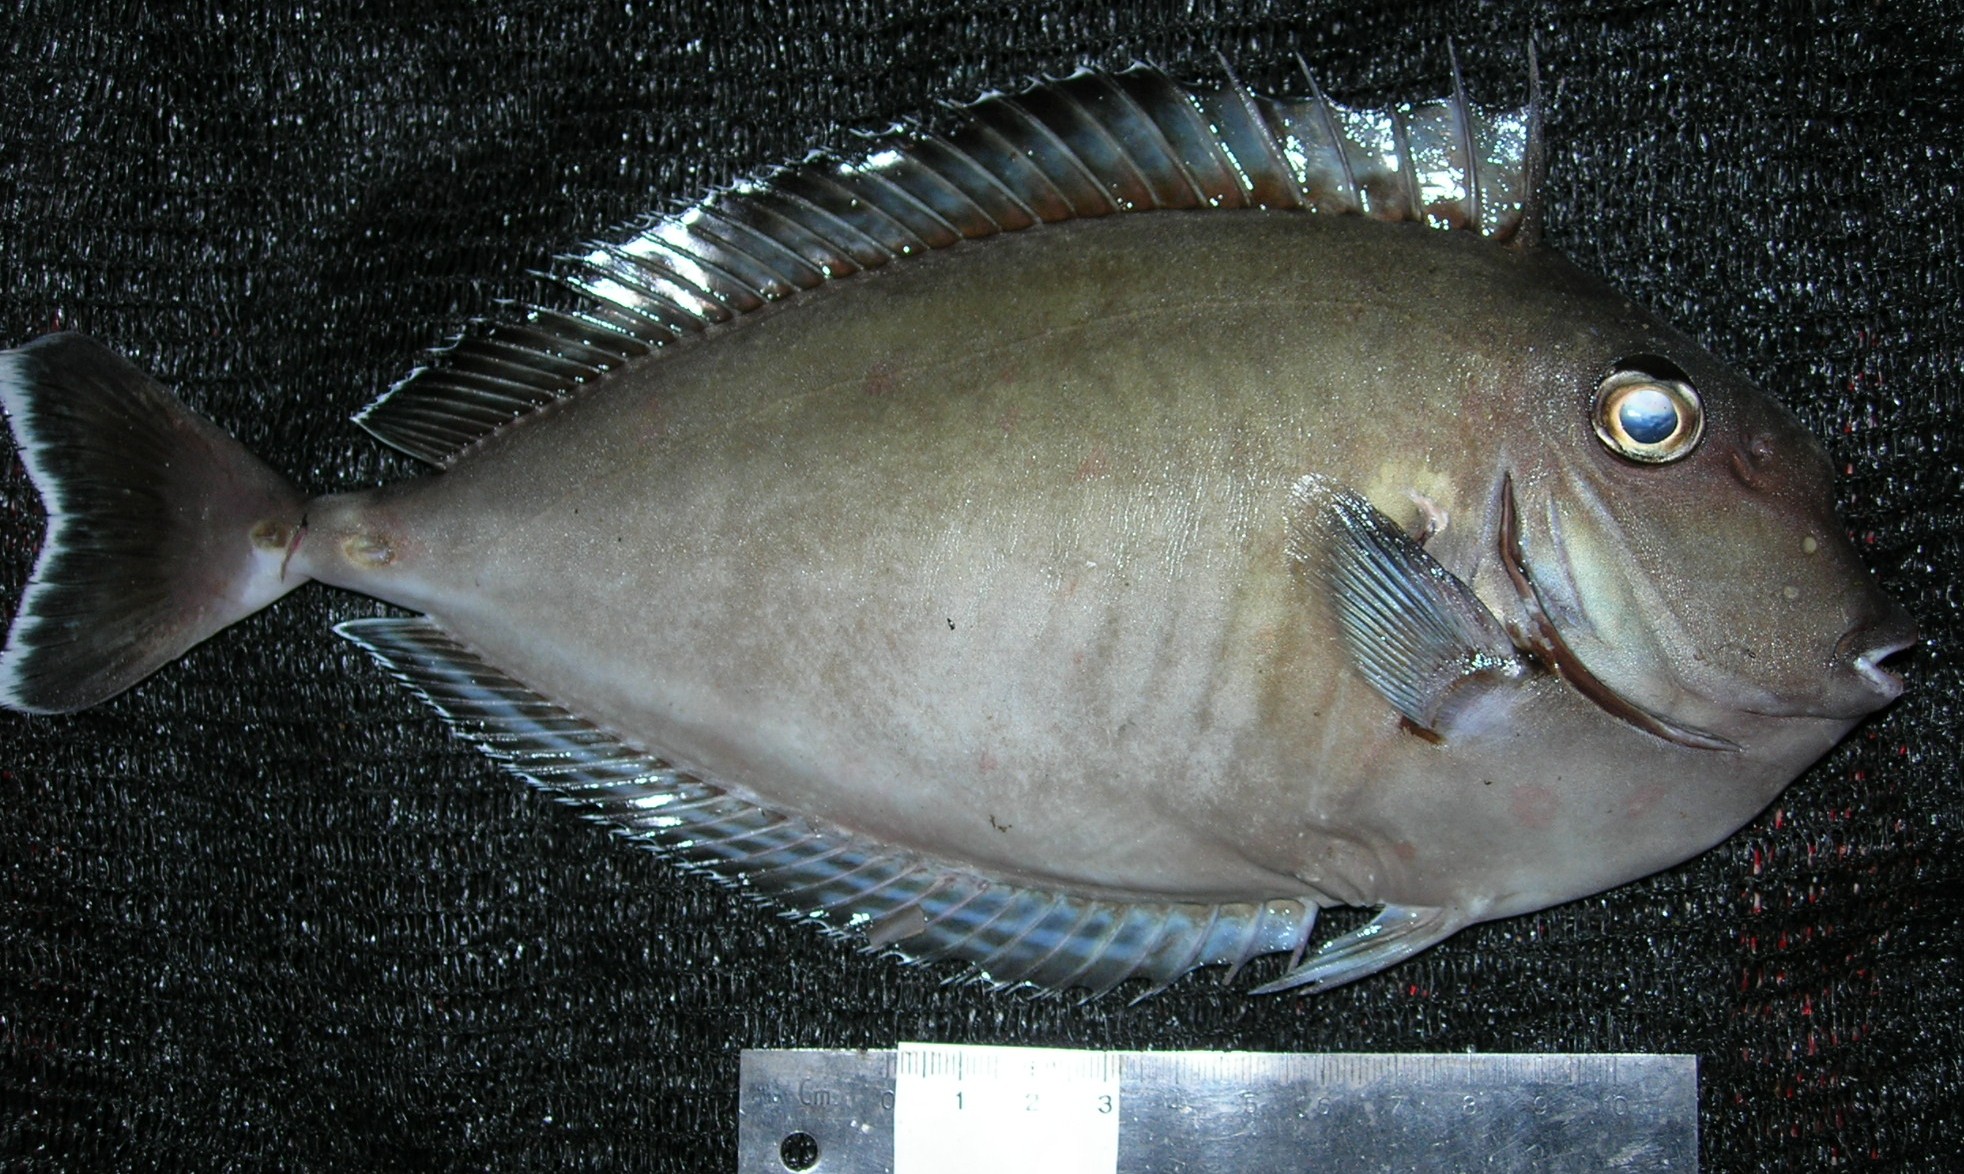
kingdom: Animalia
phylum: Chordata
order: Perciformes
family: Acanthuridae
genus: Naso
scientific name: Naso annulatus
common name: Whitemargin unicornfish
